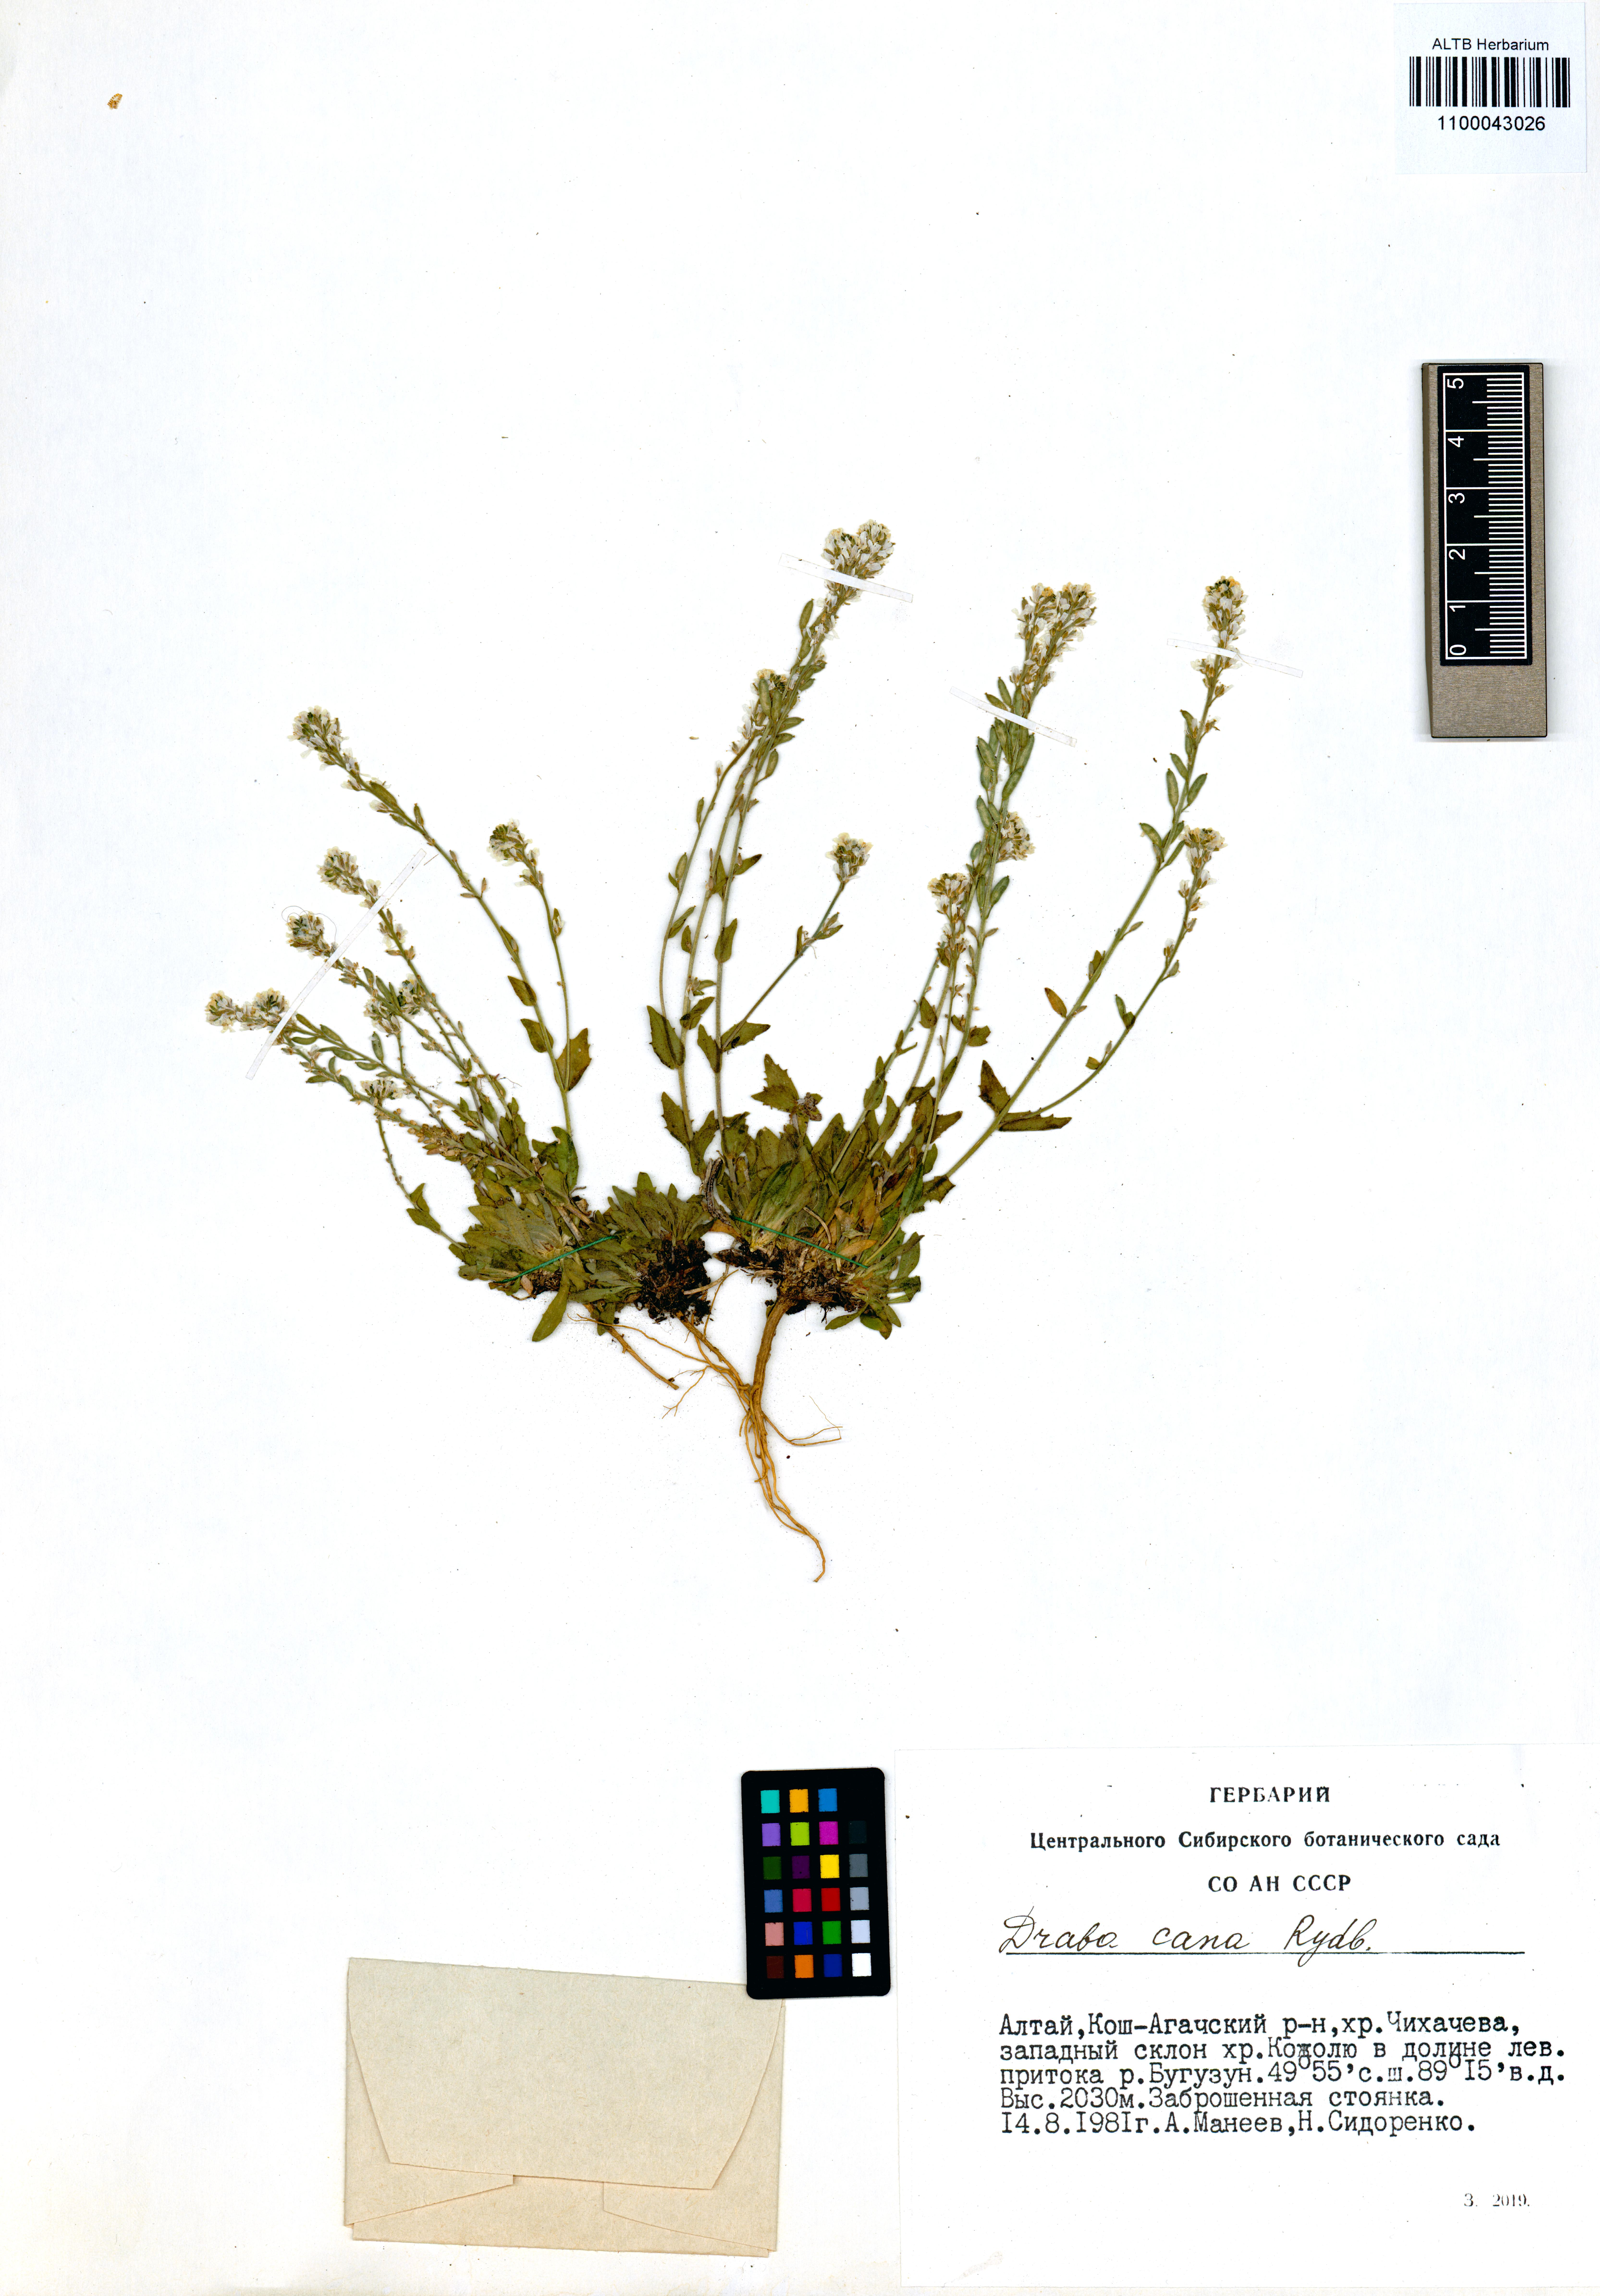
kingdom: Plantae
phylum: Tracheophyta
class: Magnoliopsida
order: Brassicales
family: Brassicaceae
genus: Draba
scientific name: Draba cana
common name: Hoary draba
